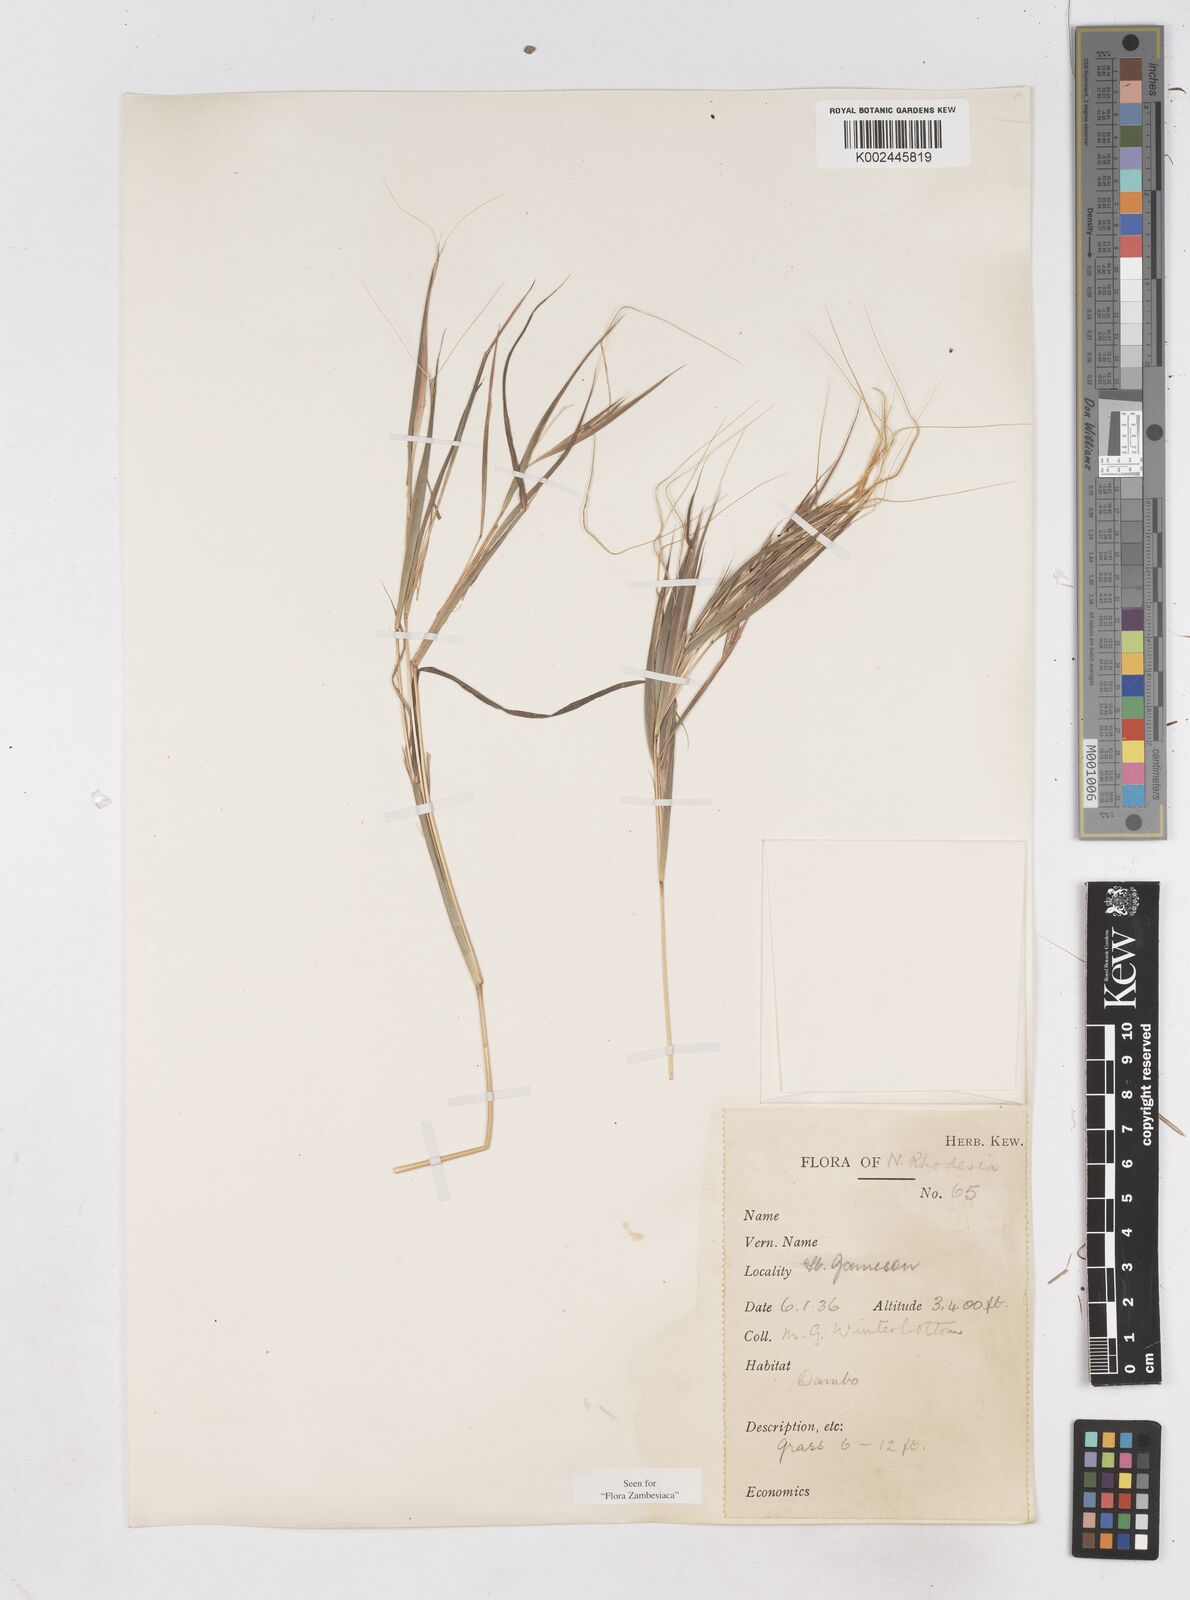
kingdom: Plantae
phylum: Tracheophyta
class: Liliopsida
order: Poales
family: Poaceae
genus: Hyperthelia
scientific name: Hyperthelia dissoluta
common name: Yellow thatching grass
